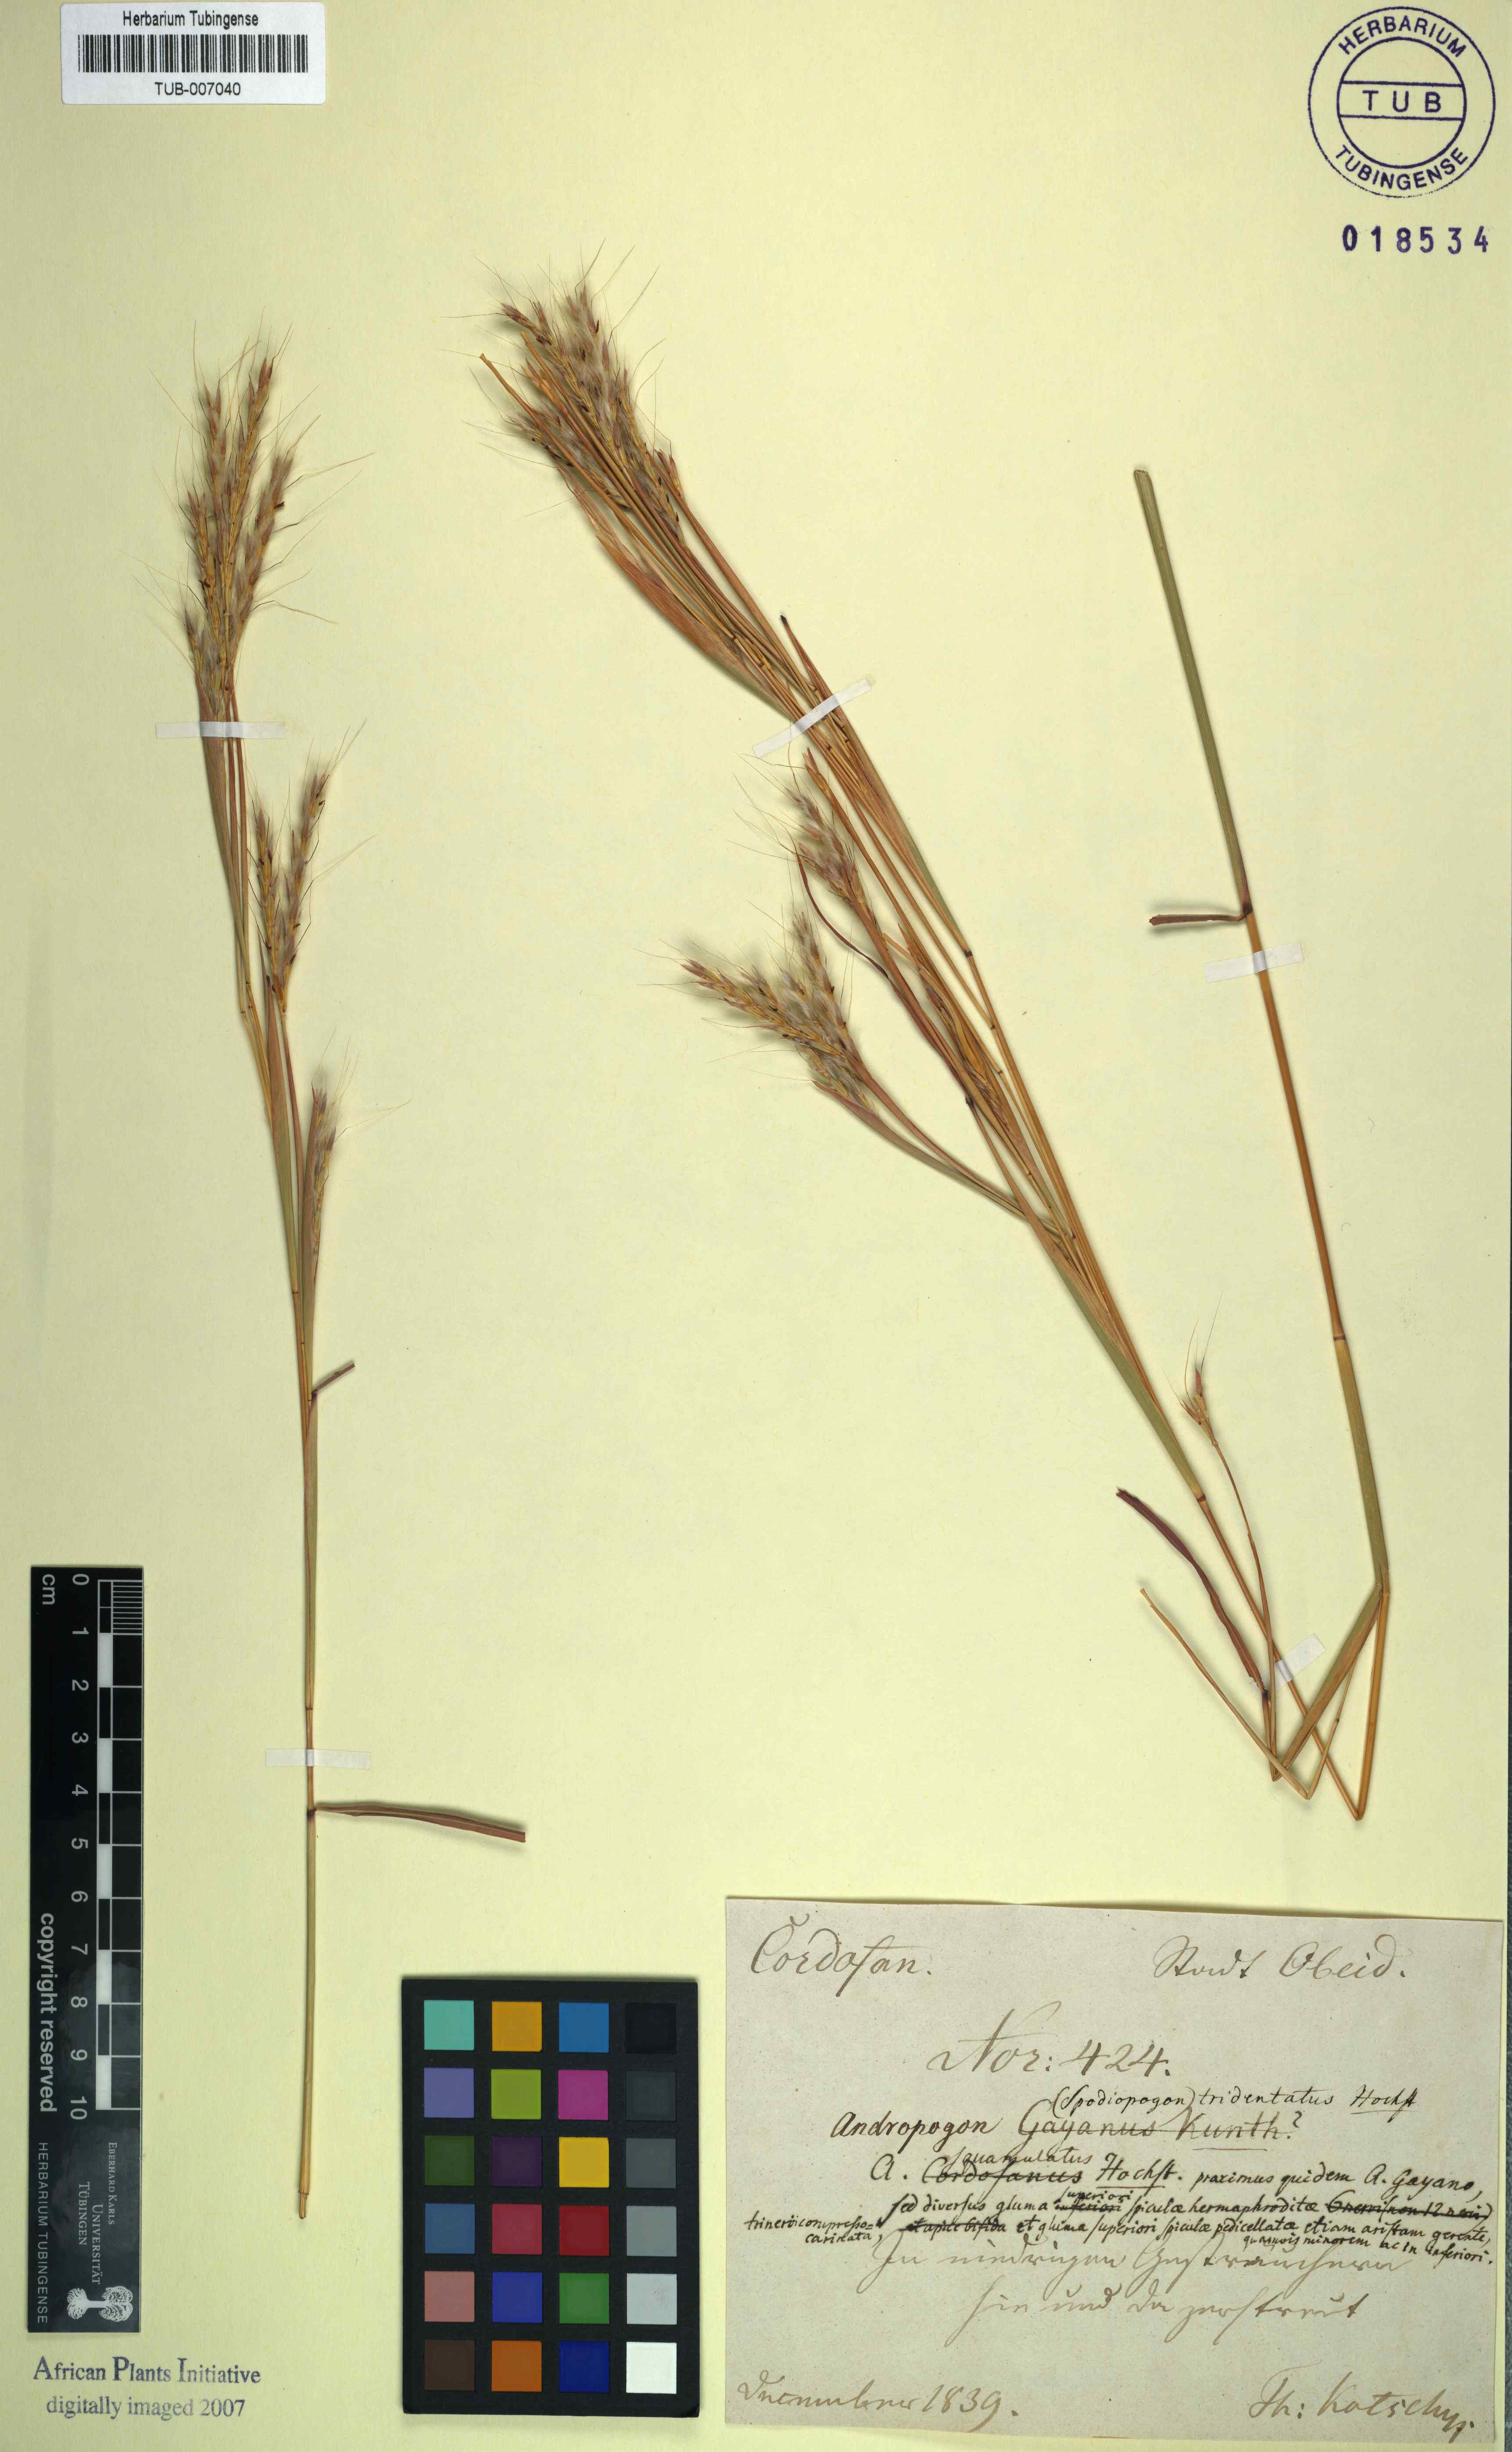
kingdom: Plantae
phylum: Tracheophyta
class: Liliopsida
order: Poales
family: Poaceae
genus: Andropogon
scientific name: Andropogon gayanus
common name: Tambuki grass
